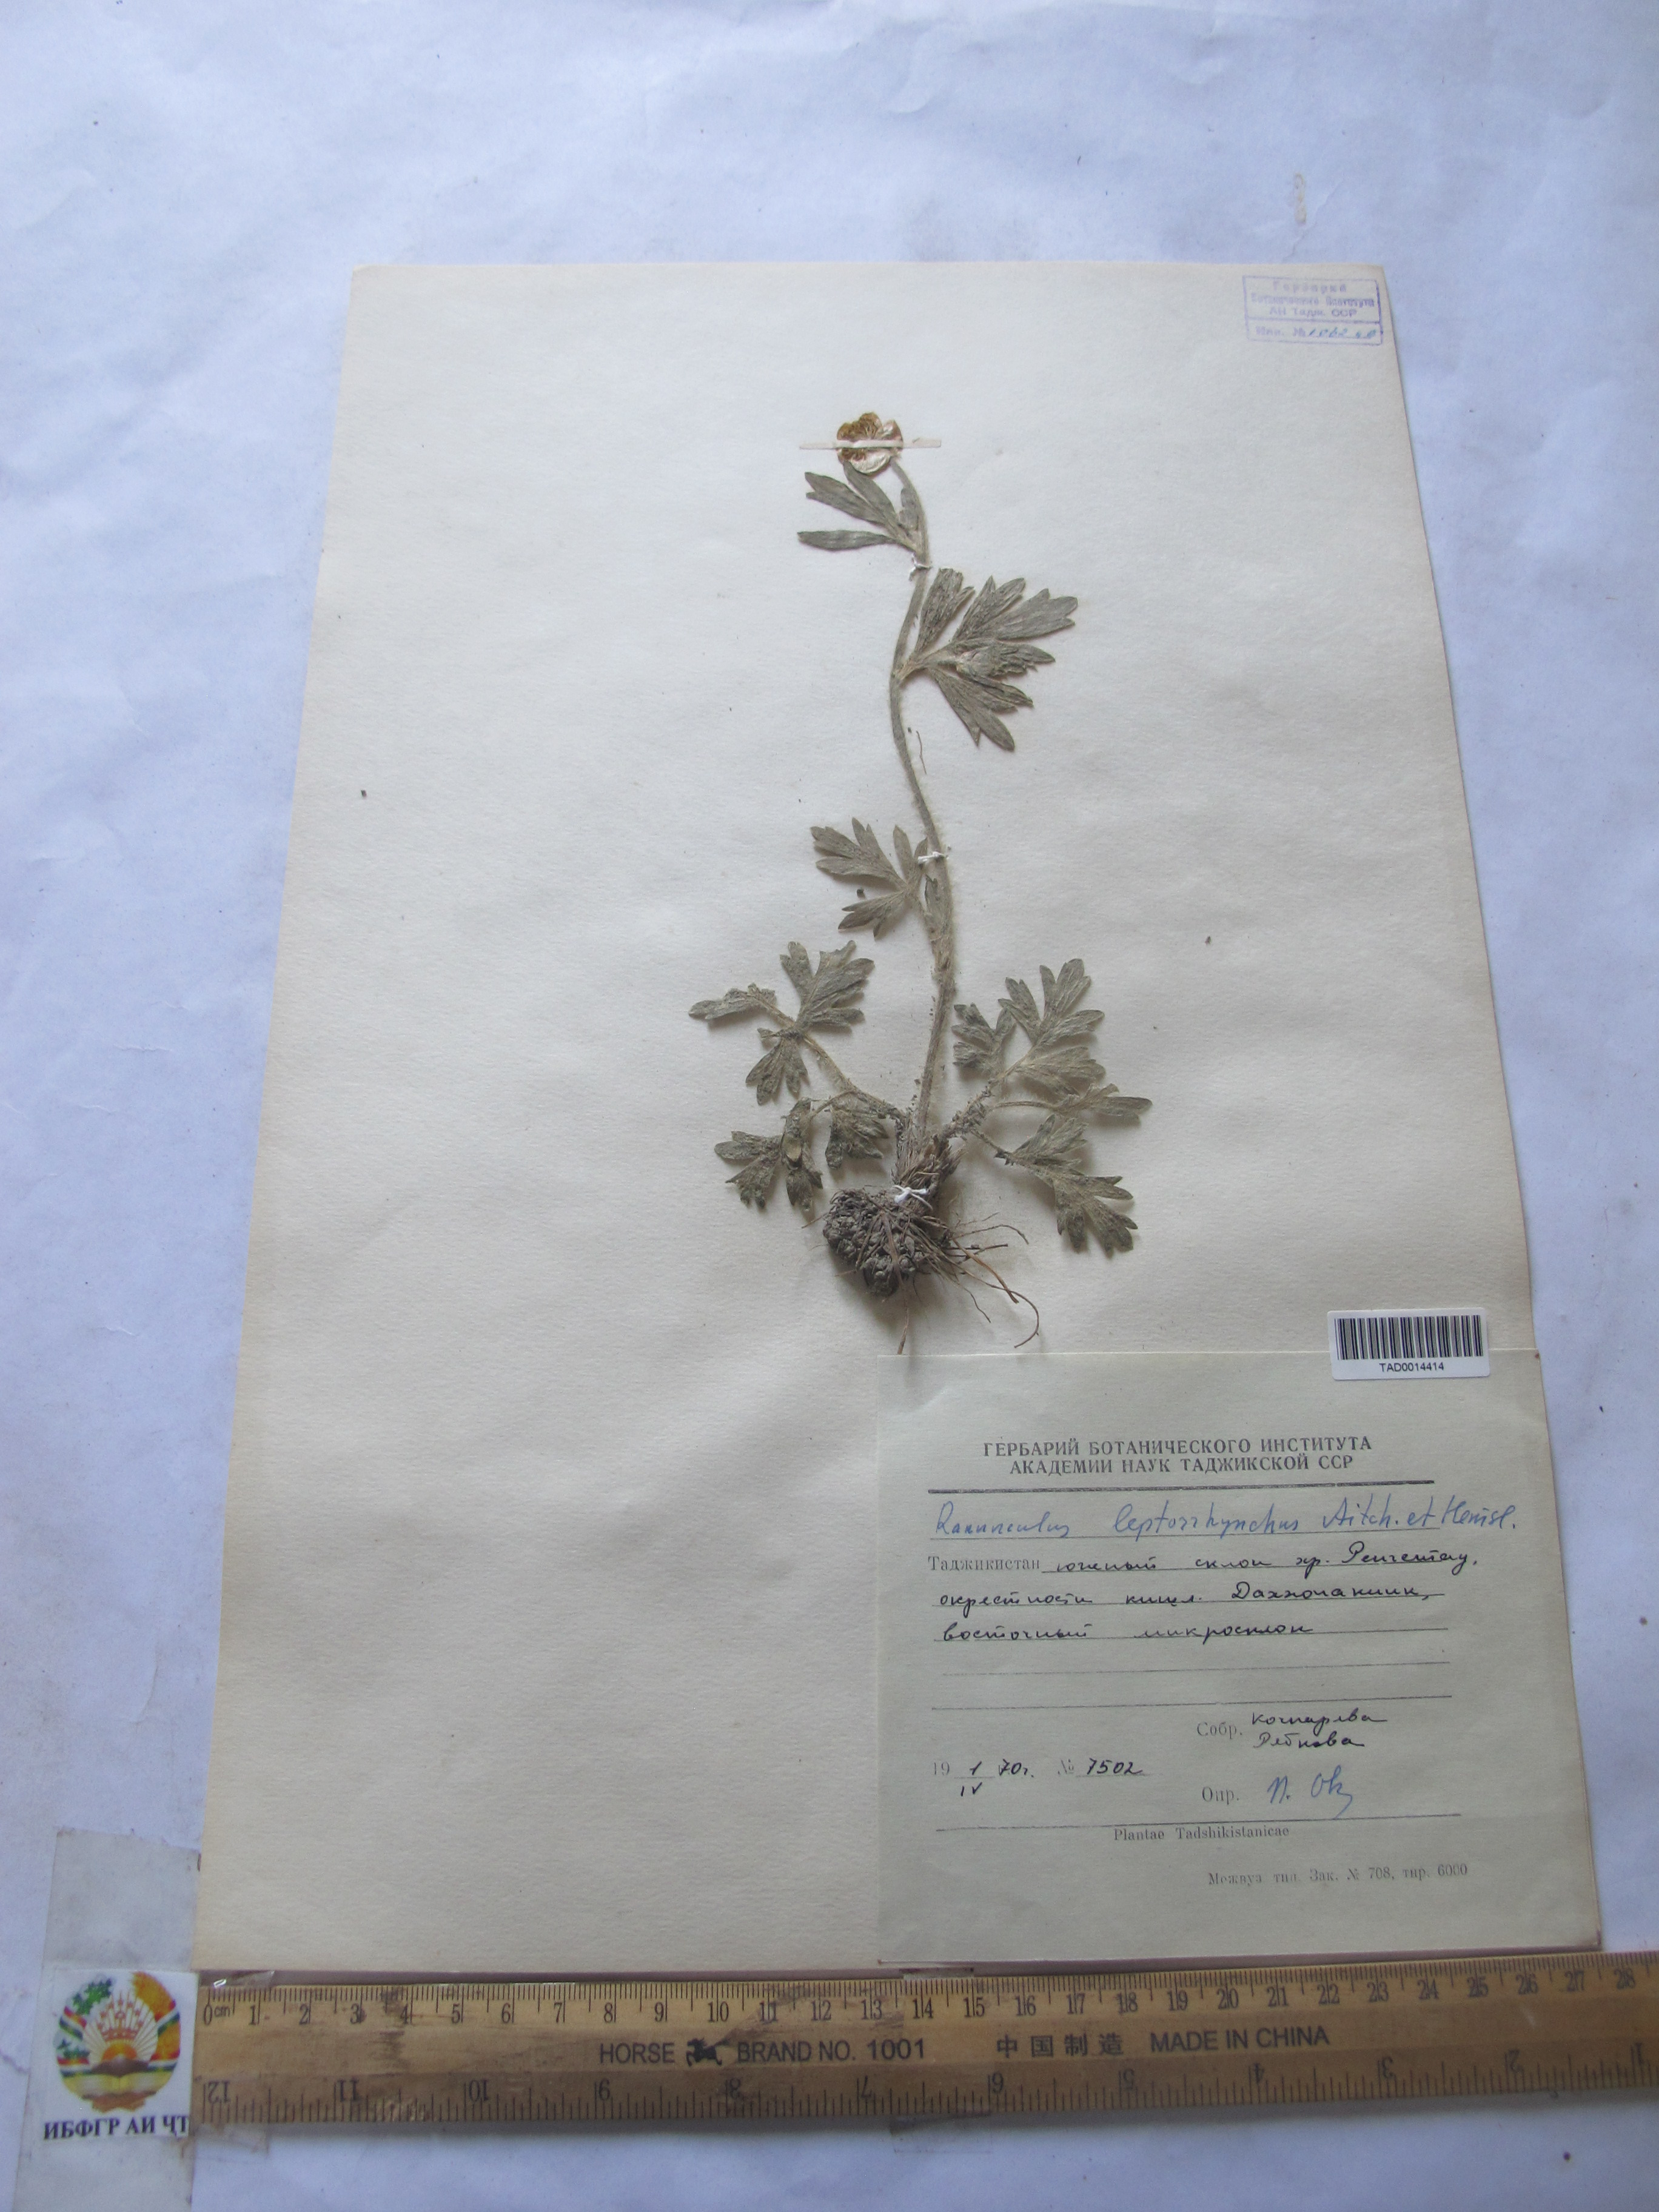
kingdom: Plantae
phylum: Tracheophyta
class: Magnoliopsida
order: Ranunculales
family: Ranunculaceae
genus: Ranunculus
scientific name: Ranunculus leptorrhynchus
